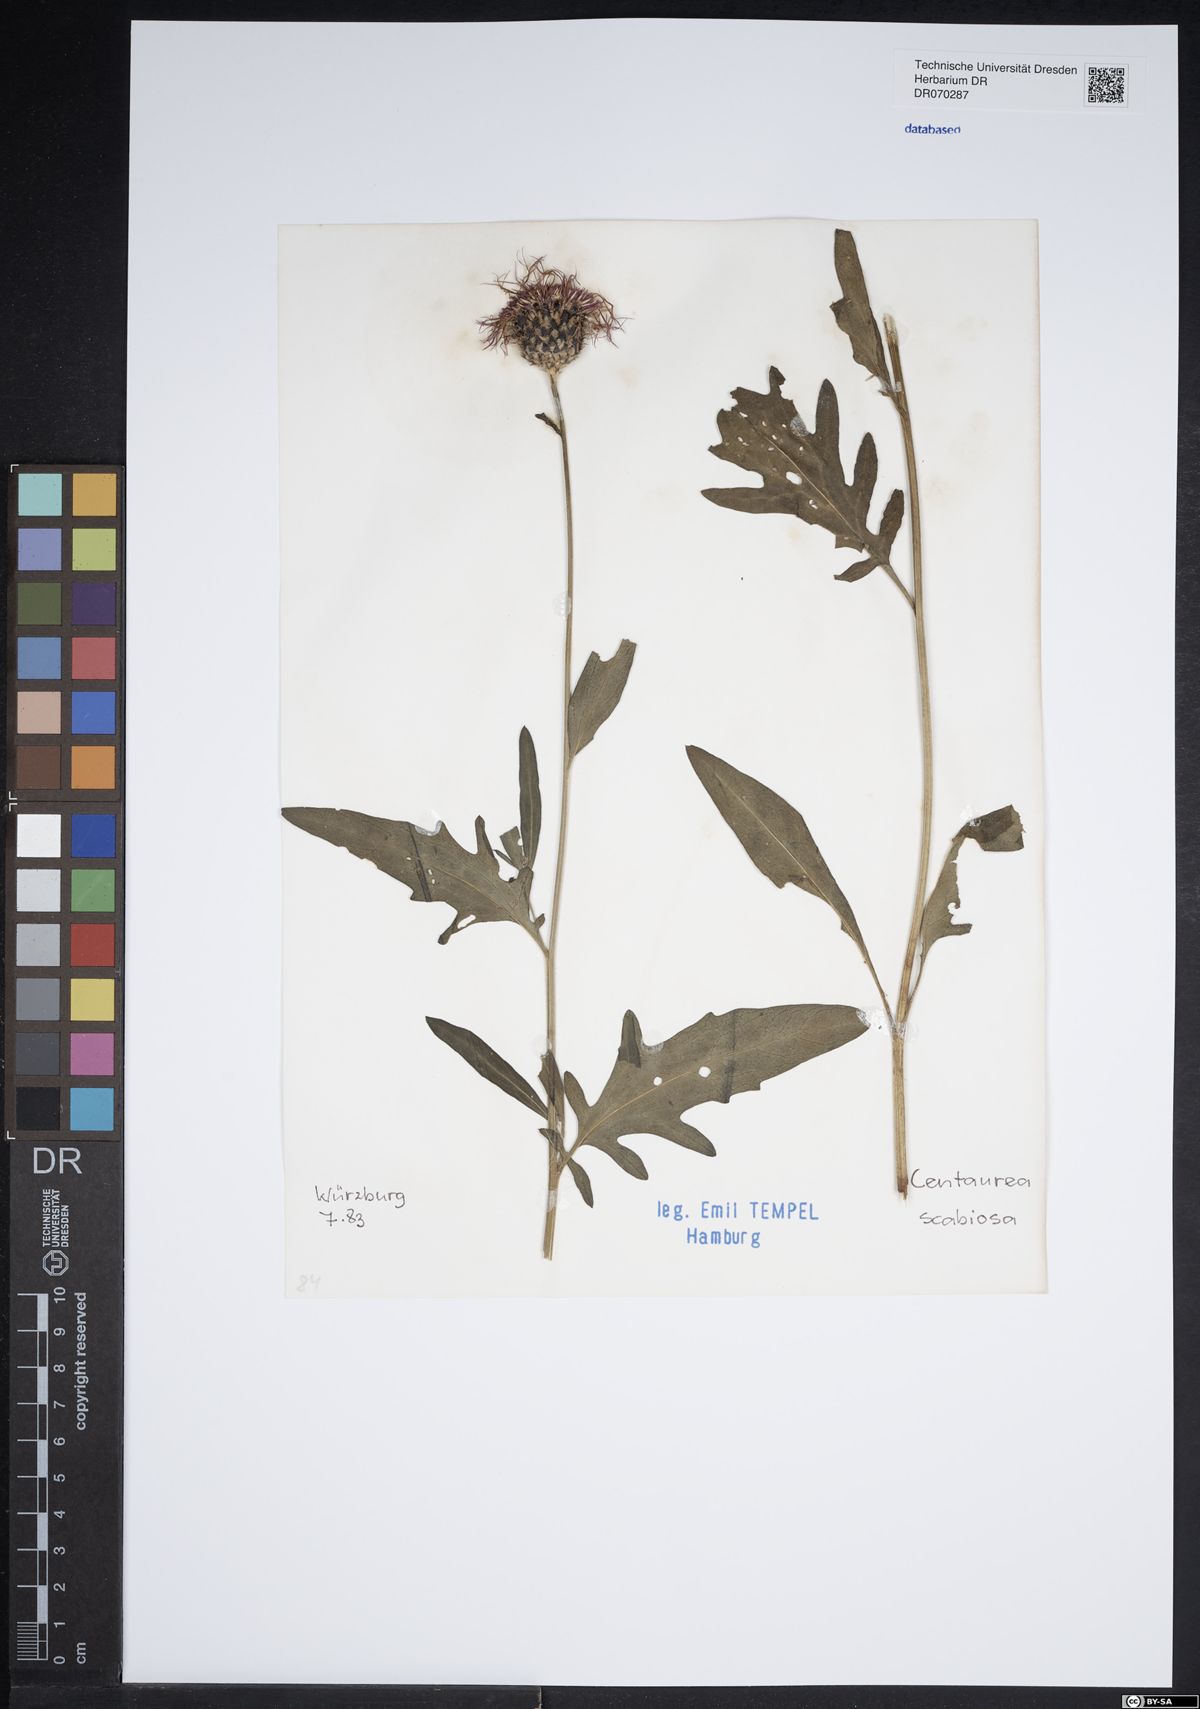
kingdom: Plantae
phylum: Tracheophyta
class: Magnoliopsida
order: Asterales
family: Asteraceae
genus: Centaurea
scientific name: Centaurea scabiosa
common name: Greater knapweed
